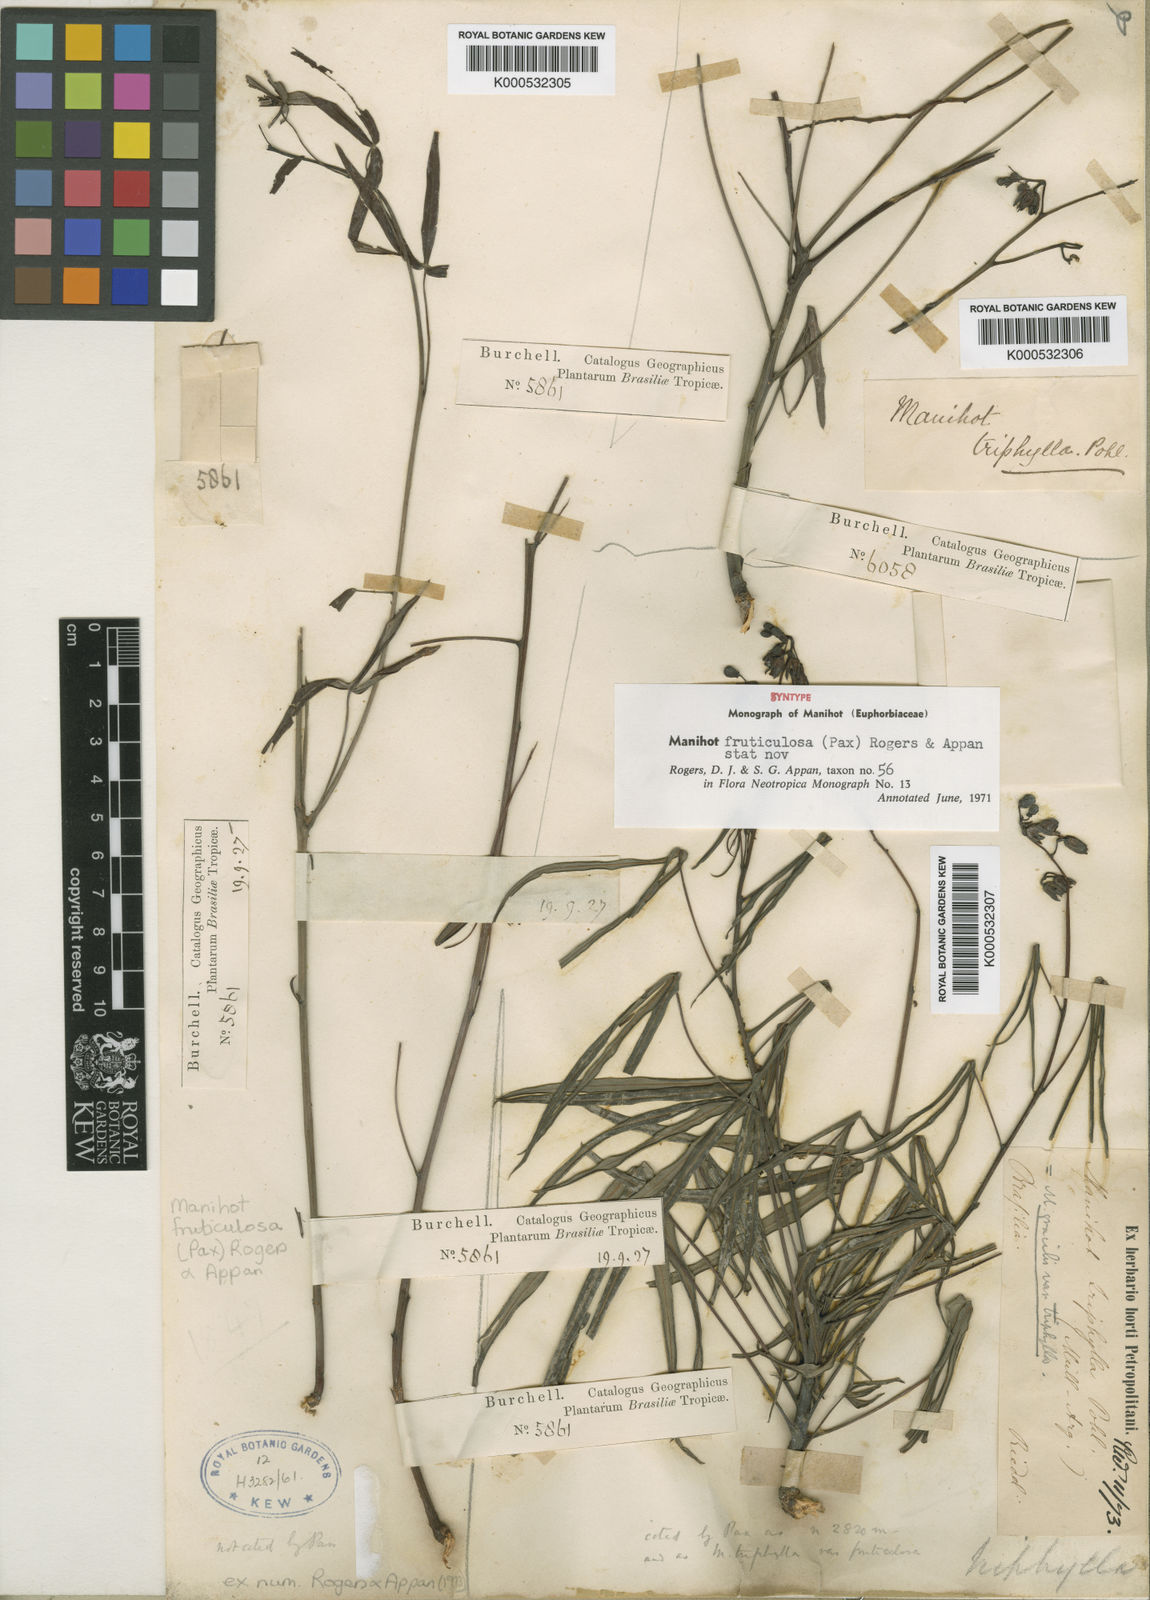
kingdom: Plantae
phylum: Tracheophyta
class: Magnoliopsida
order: Malpighiales
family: Euphorbiaceae
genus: Manihot
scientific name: Manihot fruticulosa
